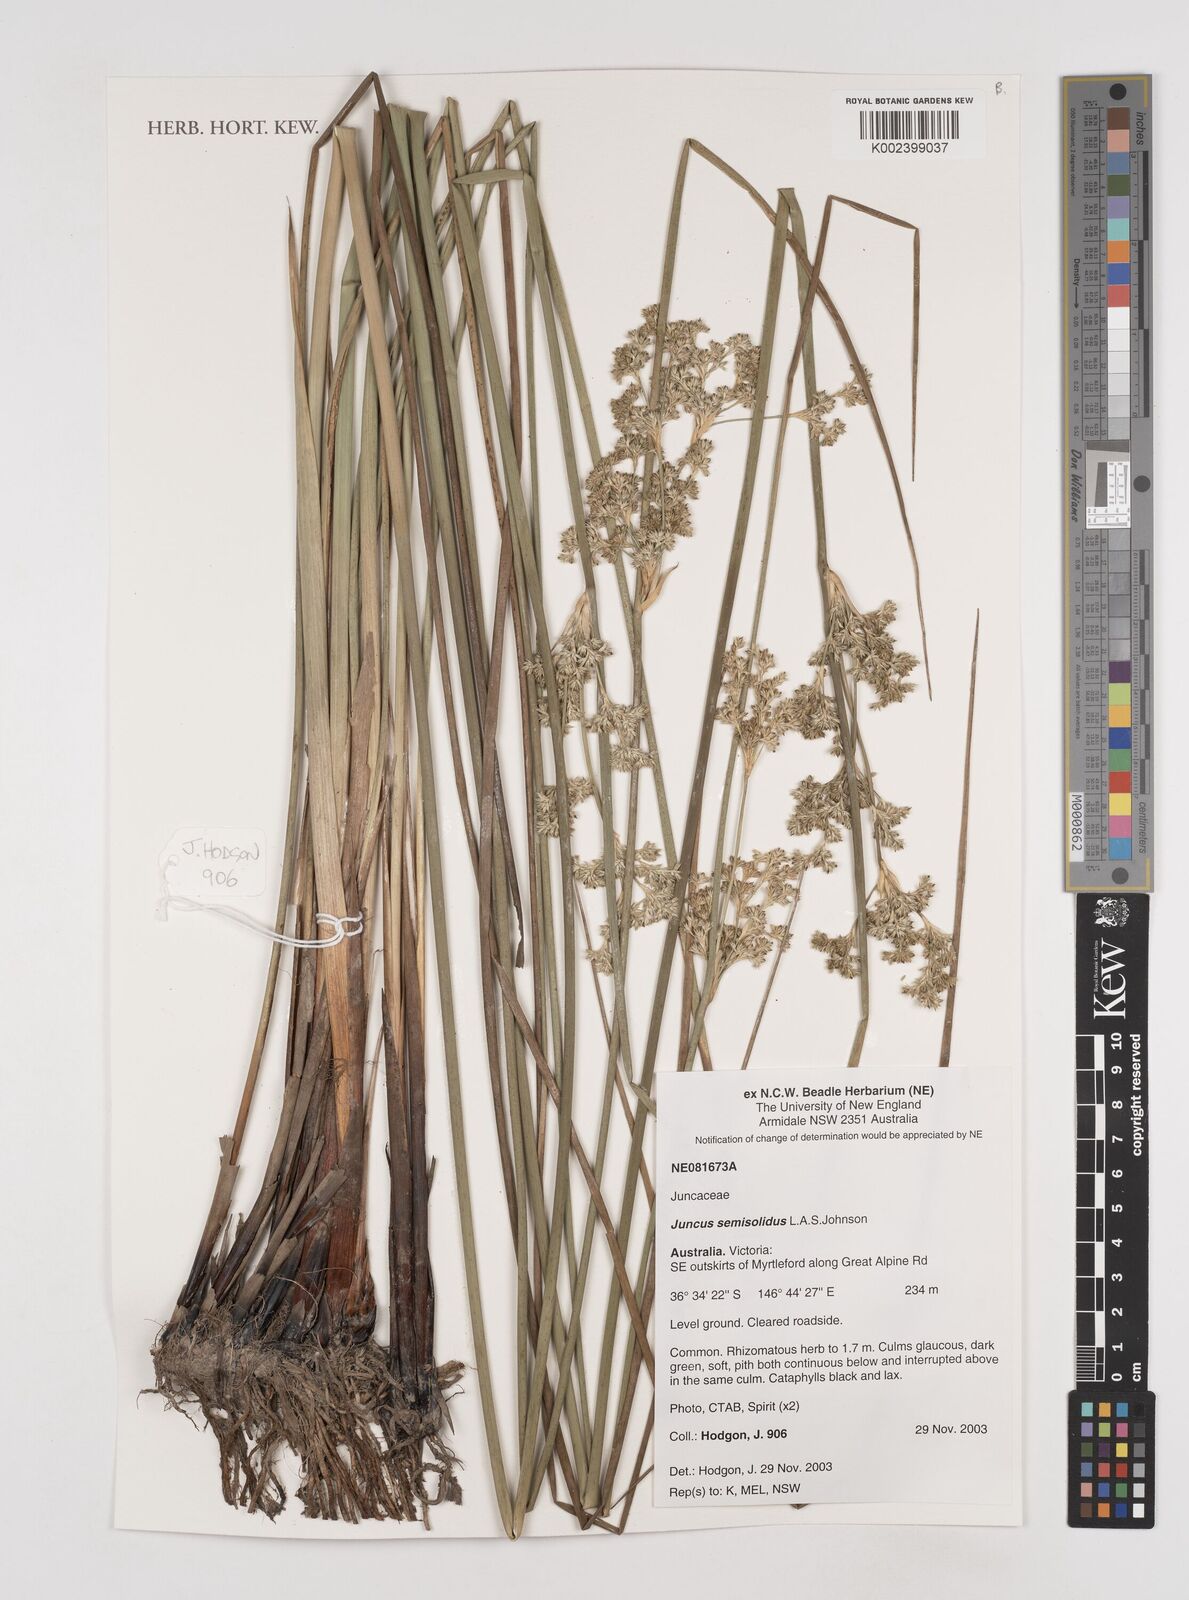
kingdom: Plantae
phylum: Tracheophyta
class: Liliopsida
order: Poales
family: Juncaceae
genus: Juncus
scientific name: Juncus semisolidus
